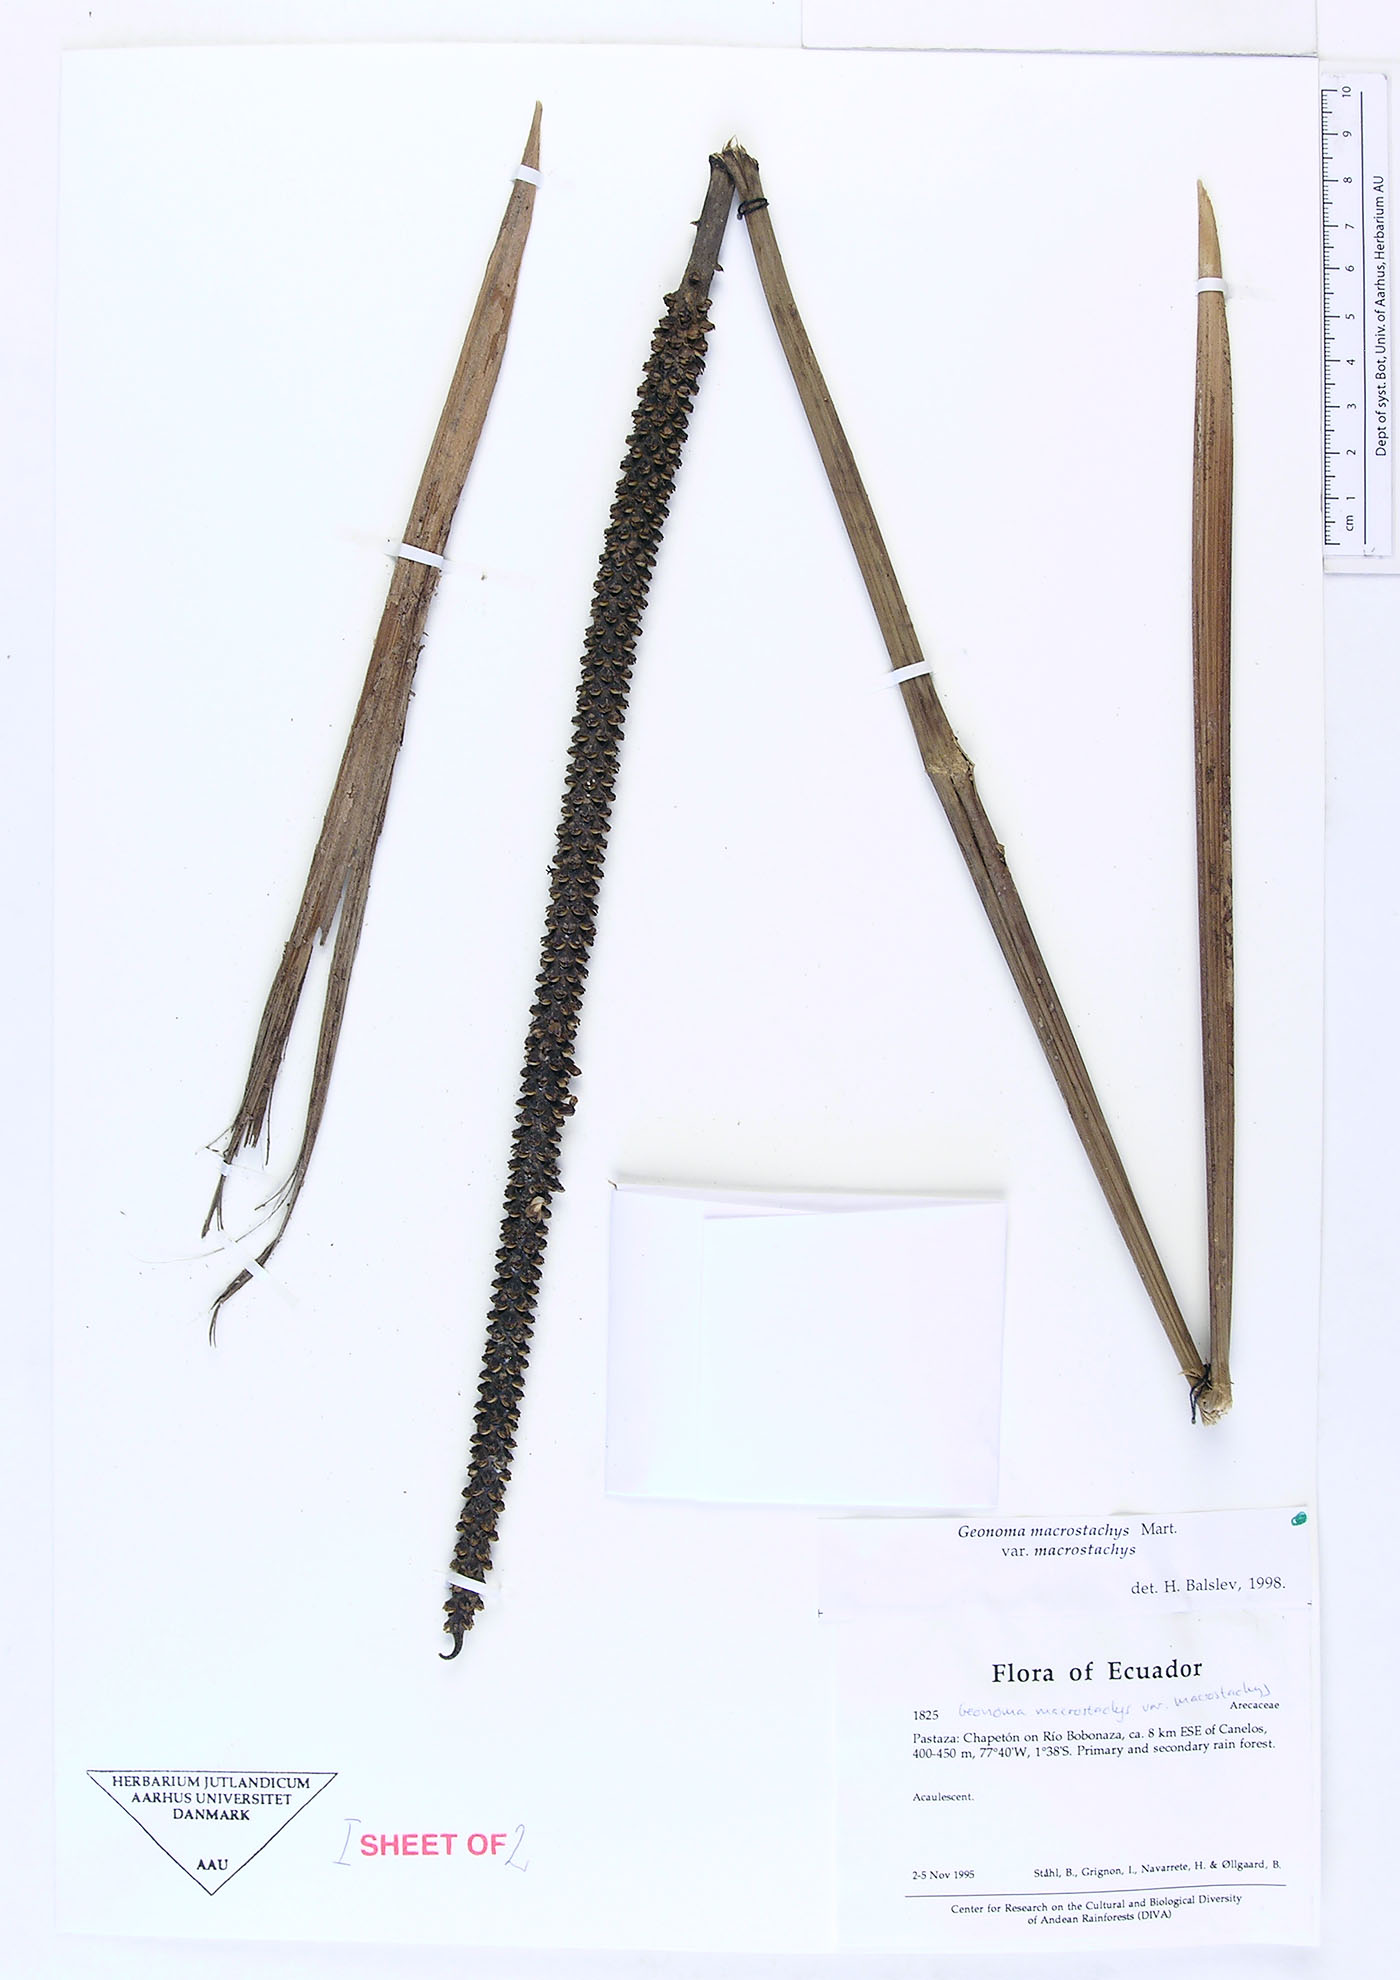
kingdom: Plantae
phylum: Tracheophyta
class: Liliopsida
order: Arecales
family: Arecaceae
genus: Geonoma
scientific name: Geonoma macrostachys
